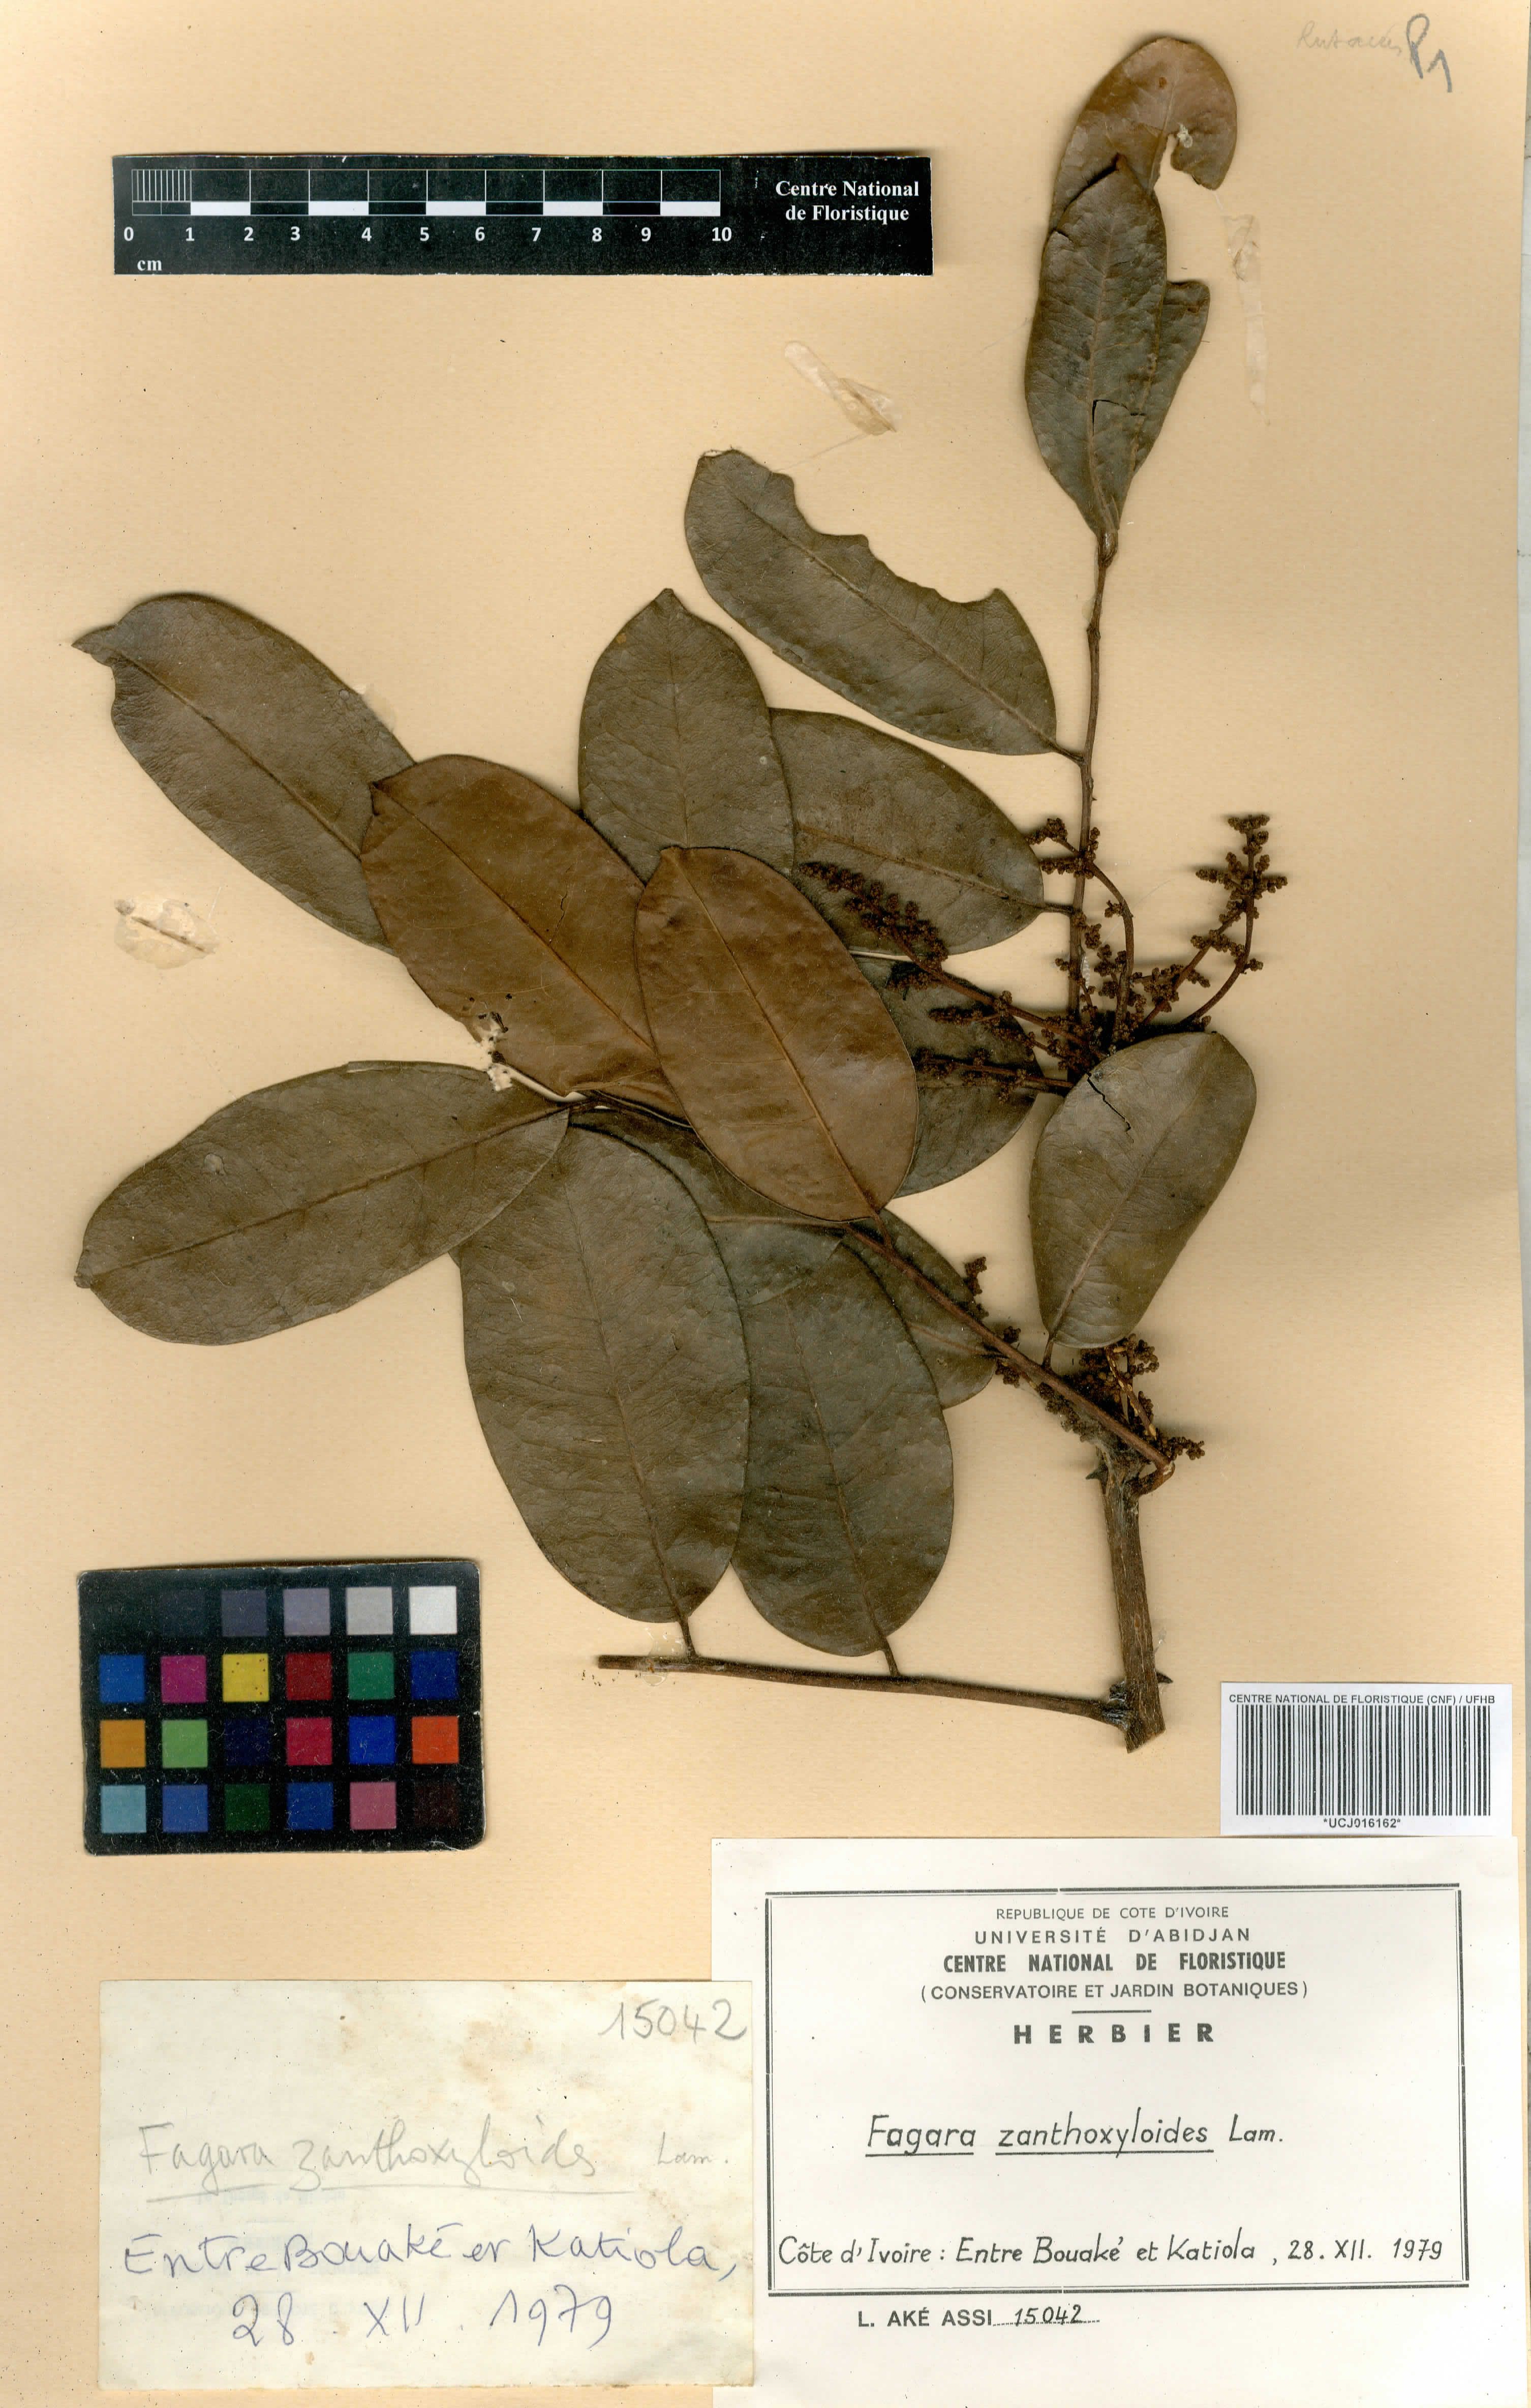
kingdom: Plantae
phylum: Tracheophyta
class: Magnoliopsida
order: Sapindales
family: Rutaceae
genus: Zanthoxylum
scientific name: Zanthoxylum zanthoxyloides
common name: Senegal prickly-ash
